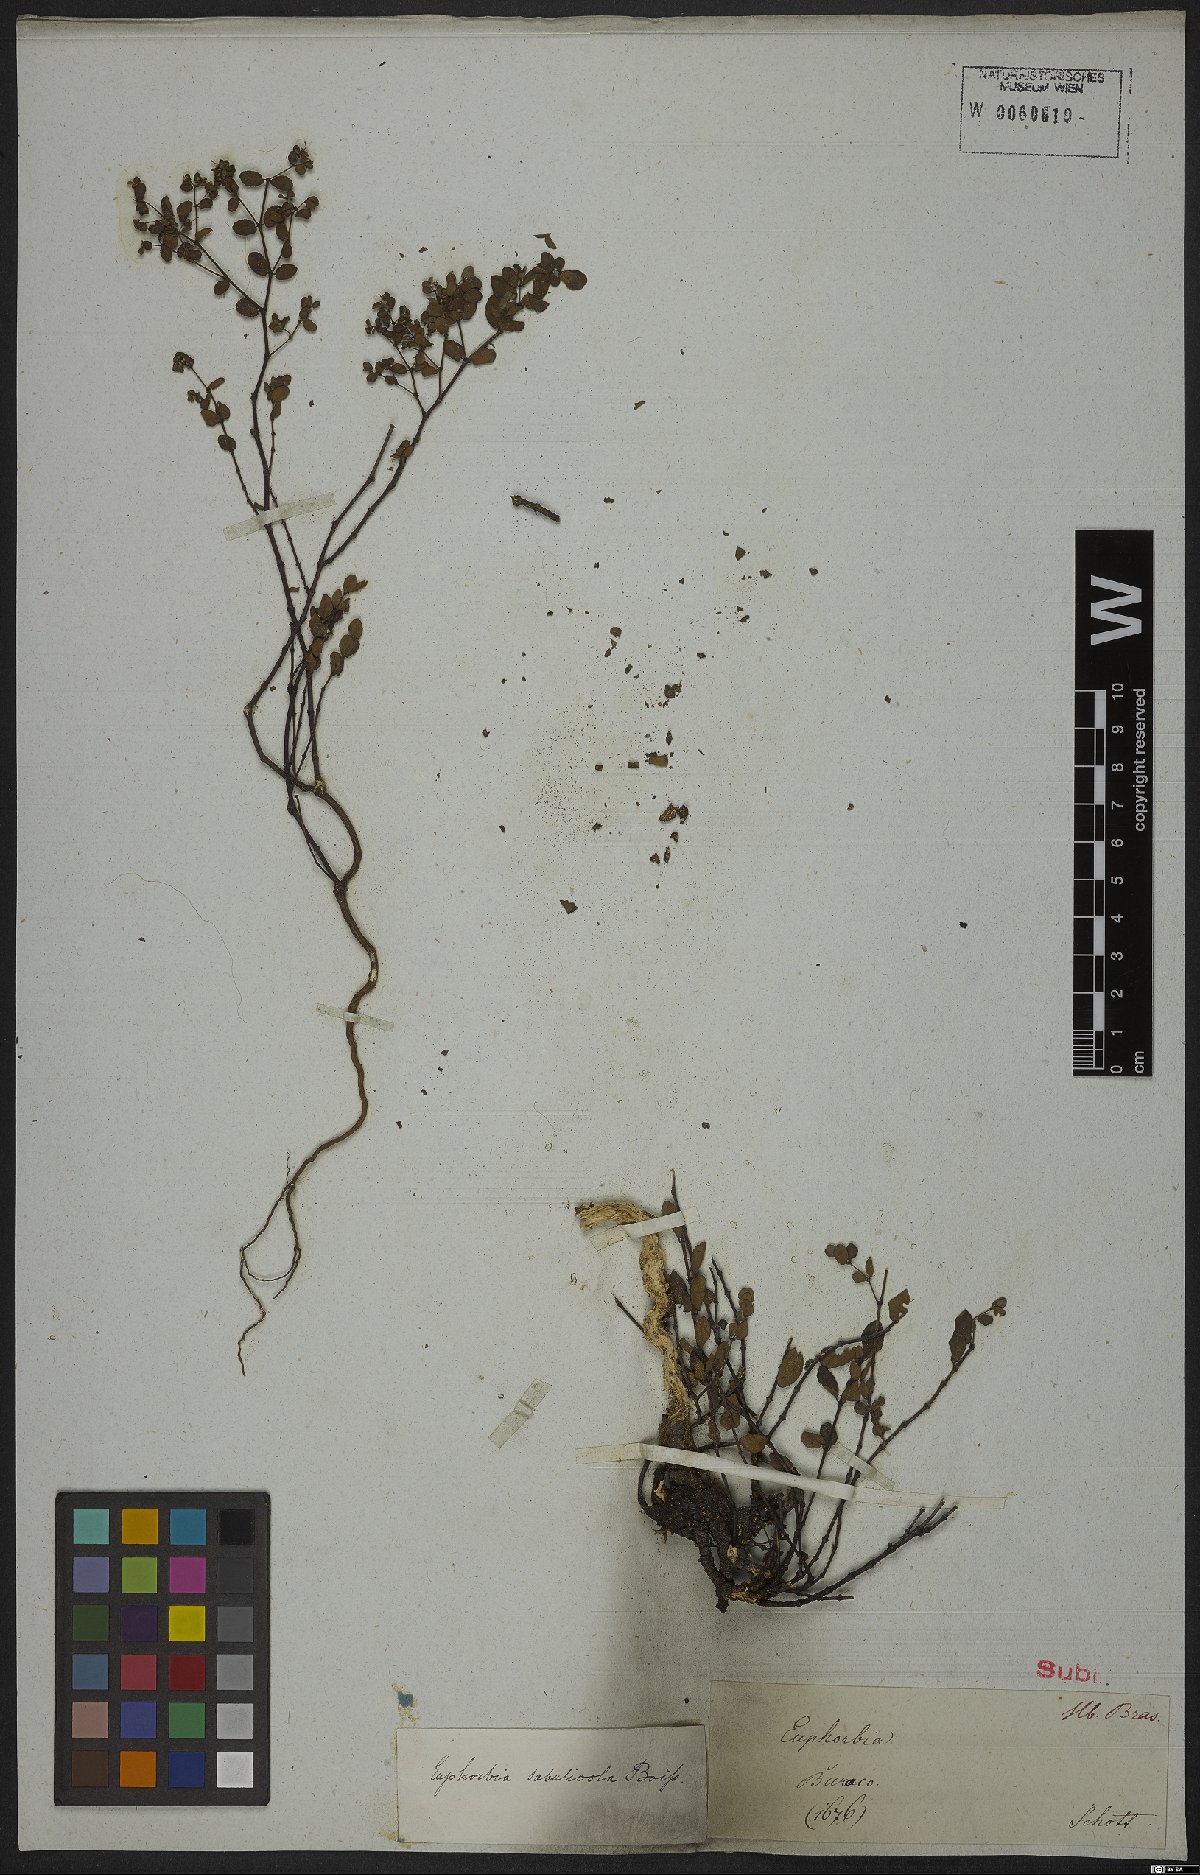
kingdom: Plantae
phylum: Tracheophyta
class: Magnoliopsida
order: Malpighiales
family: Euphorbiaceae
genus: Euphorbia
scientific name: Euphorbia sabulicola
